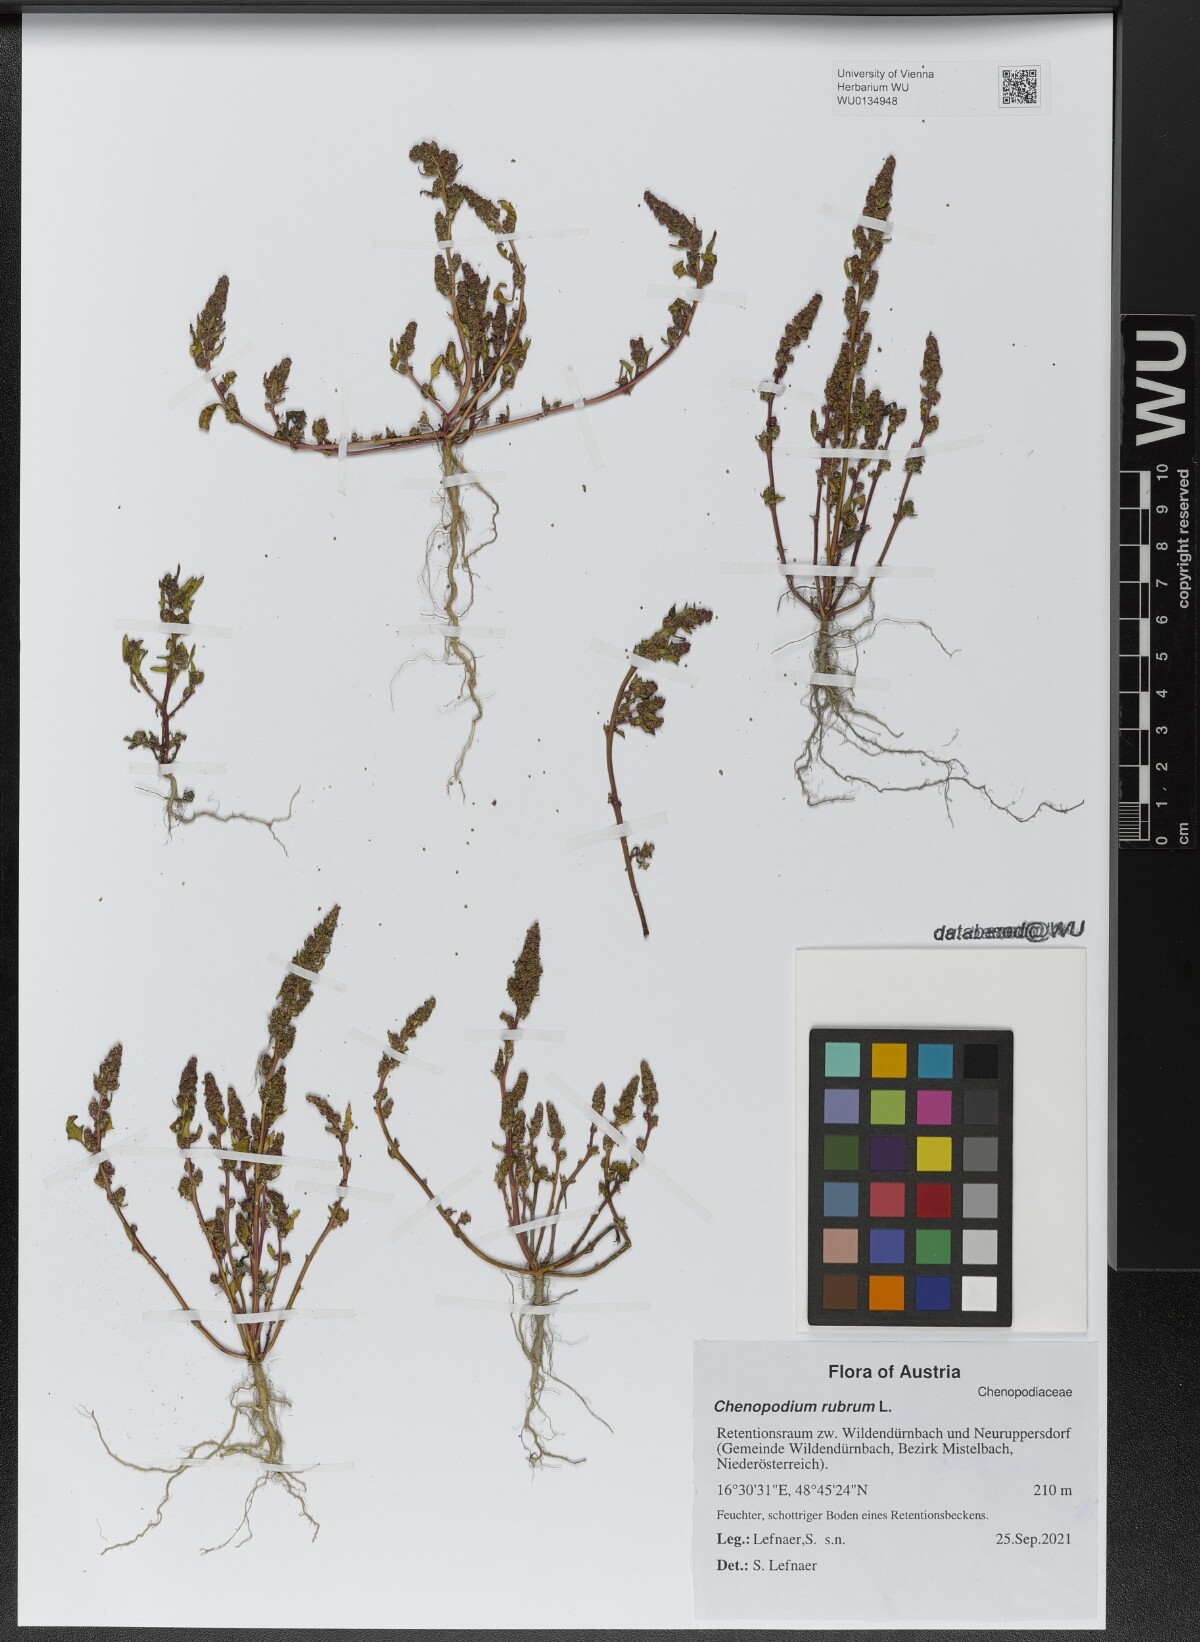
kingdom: Plantae
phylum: Tracheophyta
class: Magnoliopsida
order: Caryophyllales
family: Amaranthaceae
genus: Oxybasis
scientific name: Oxybasis rubra
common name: Red goosefoot
